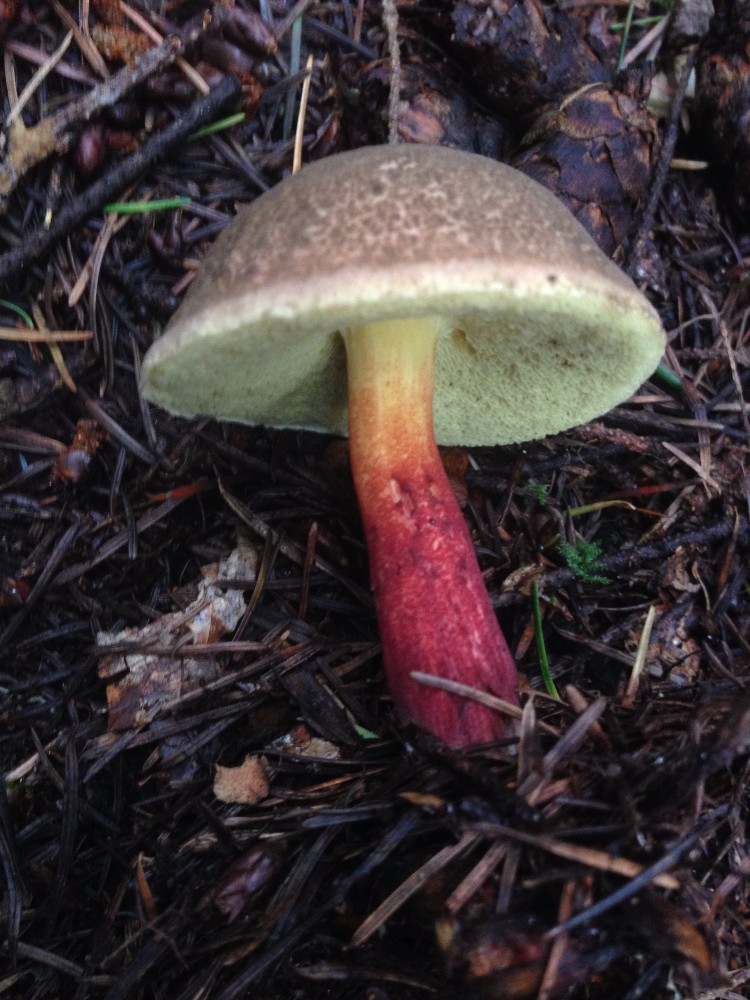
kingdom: Fungi
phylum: Basidiomycota
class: Agaricomycetes
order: Boletales
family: Boletaceae
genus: Xerocomellus
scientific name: Xerocomellus chrysenteron
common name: rødsprukken rørhat
